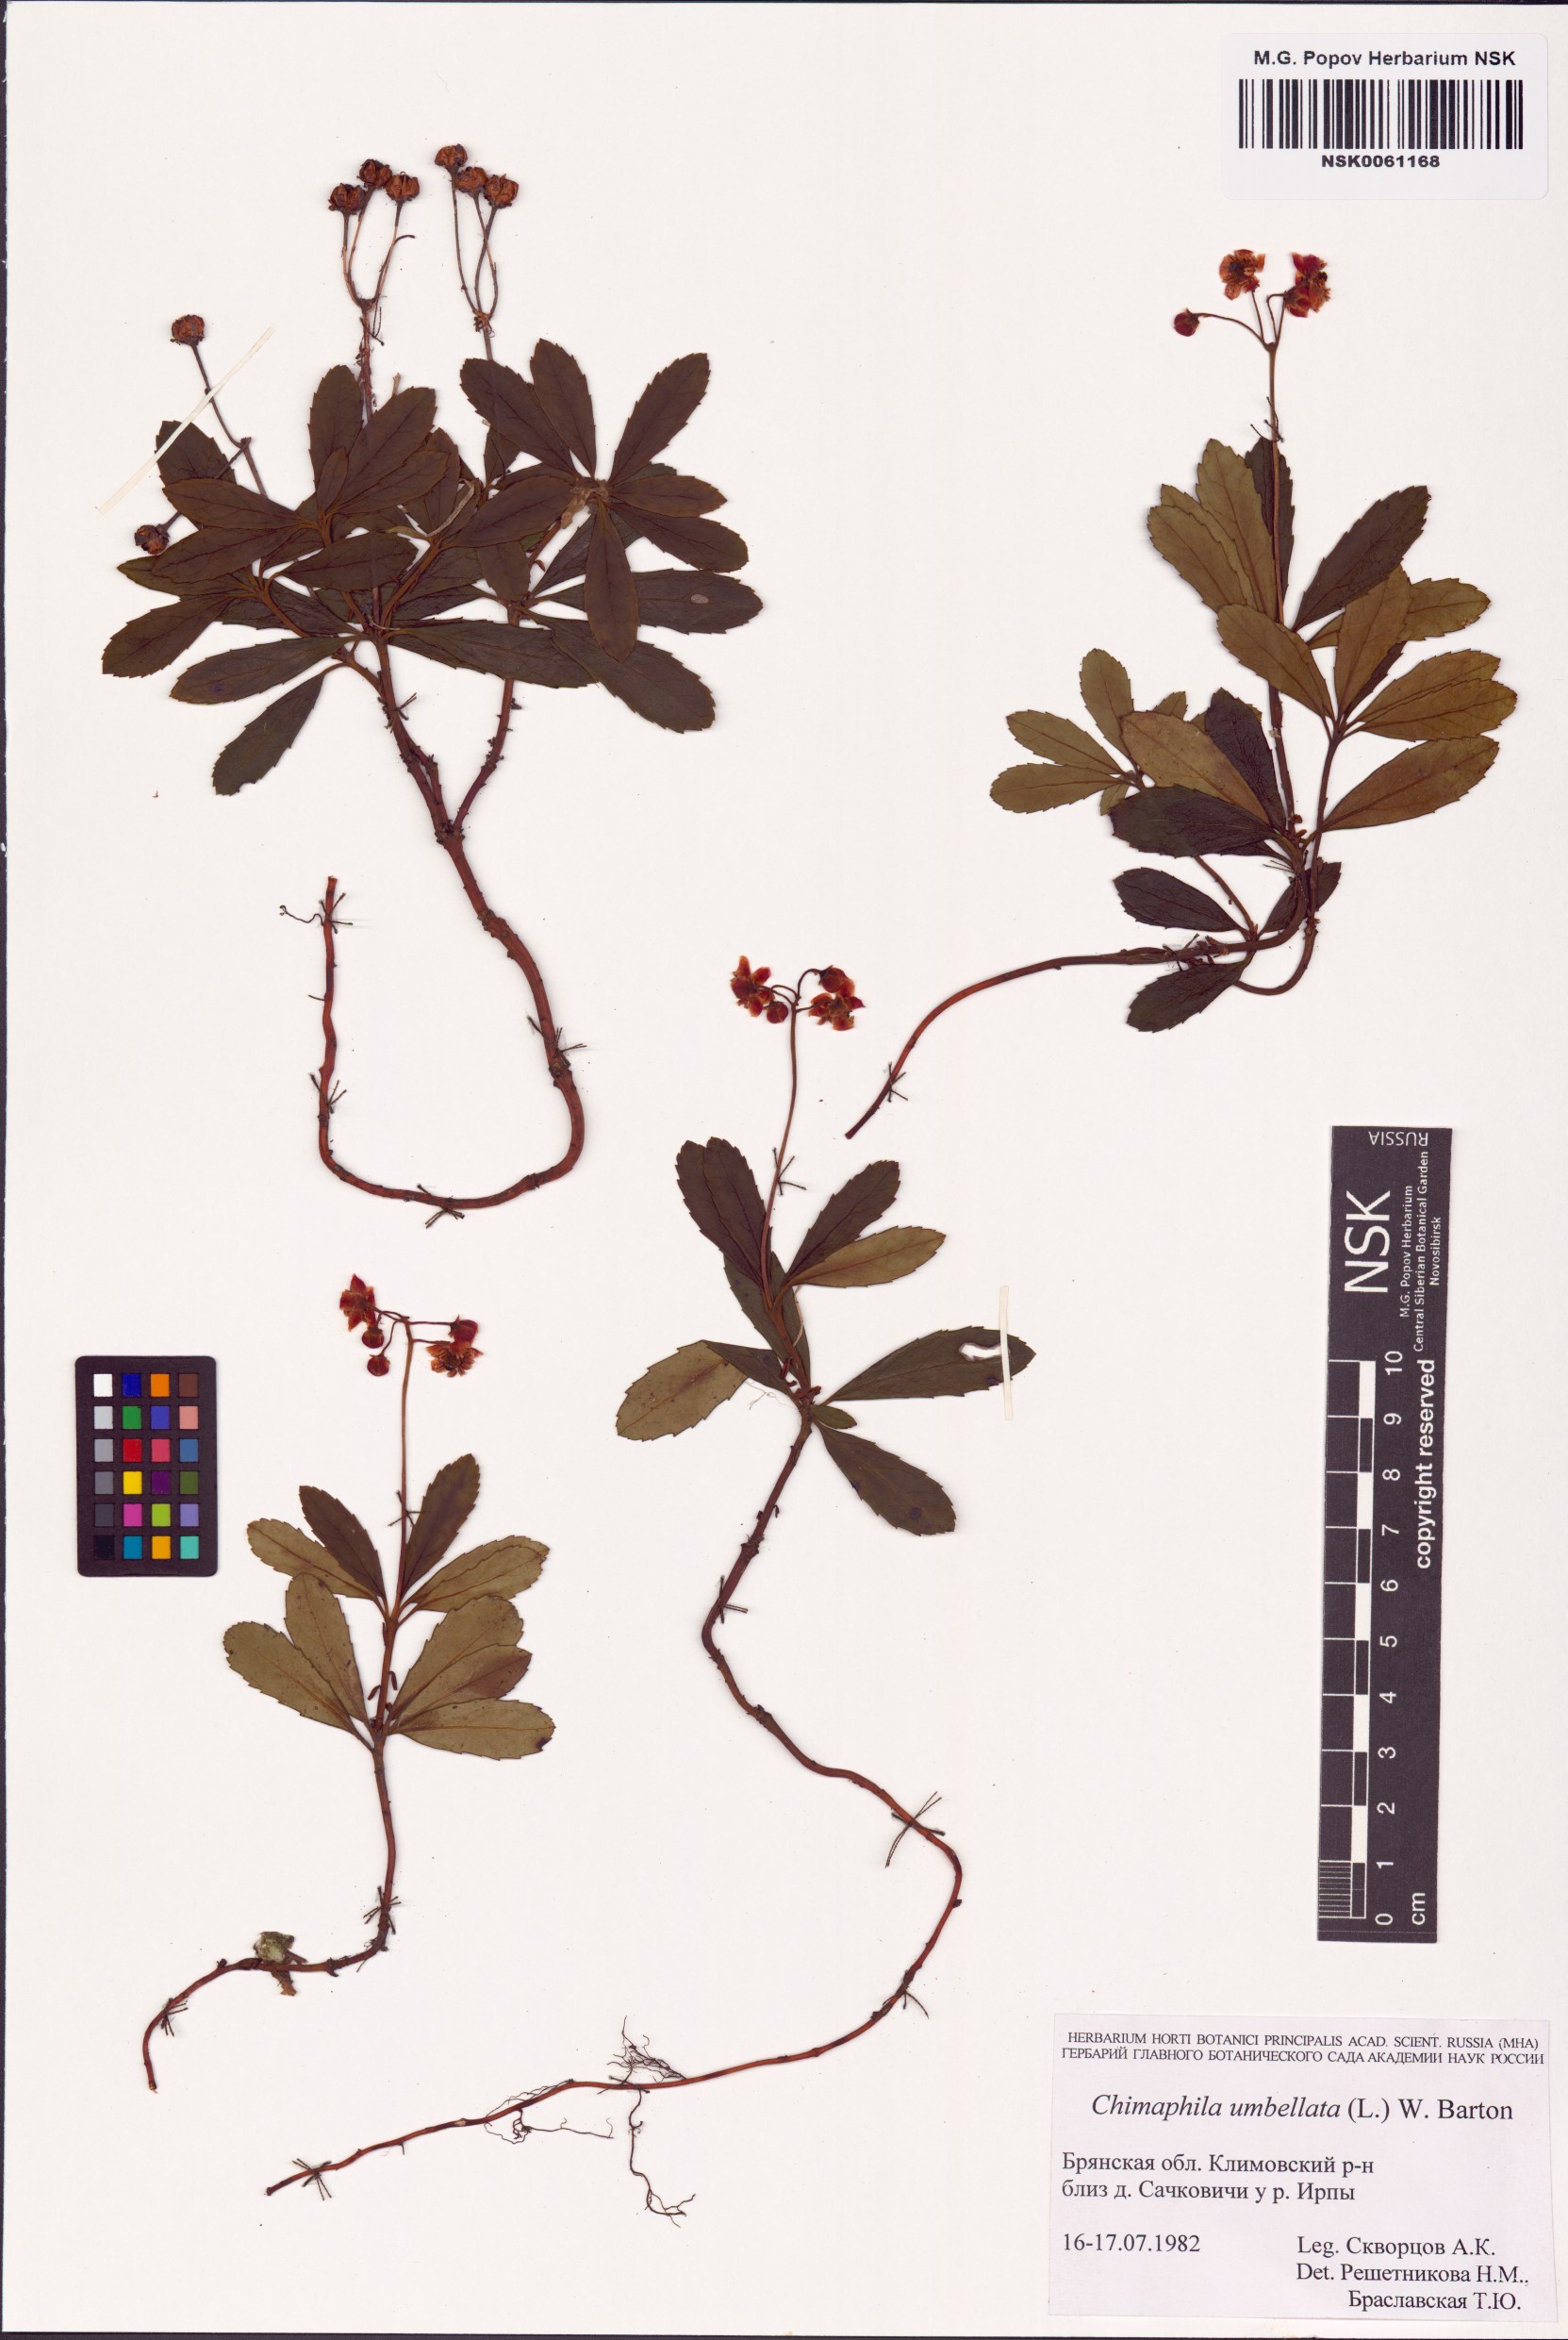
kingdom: Plantae
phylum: Tracheophyta
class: Magnoliopsida
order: Ericales
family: Ericaceae
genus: Chimaphila
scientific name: Chimaphila umbellata
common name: Pipsissewa
